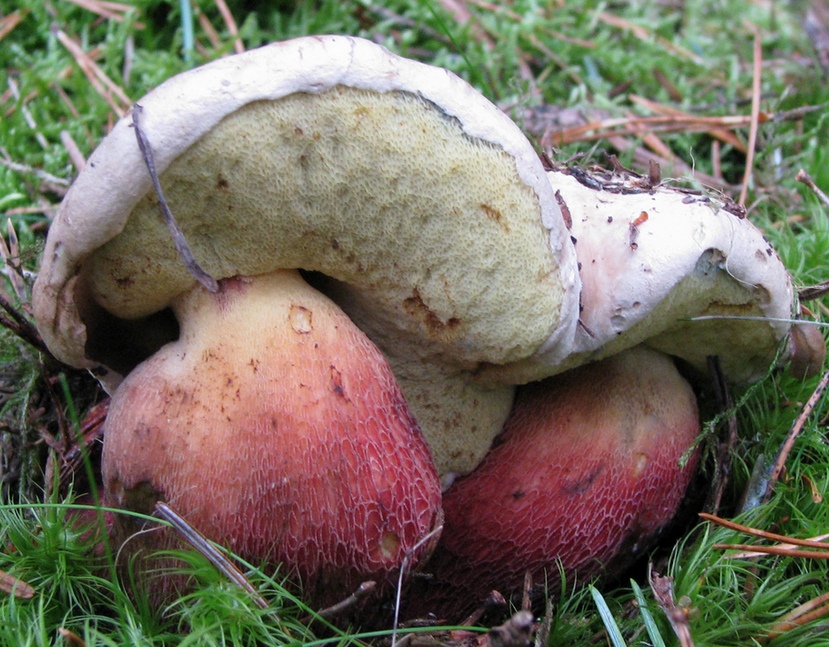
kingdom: Fungi
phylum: Basidiomycota
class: Agaricomycetes
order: Boletales
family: Boletaceae
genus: Caloboletus
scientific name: Caloboletus calopus
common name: skønfodet rørhat
